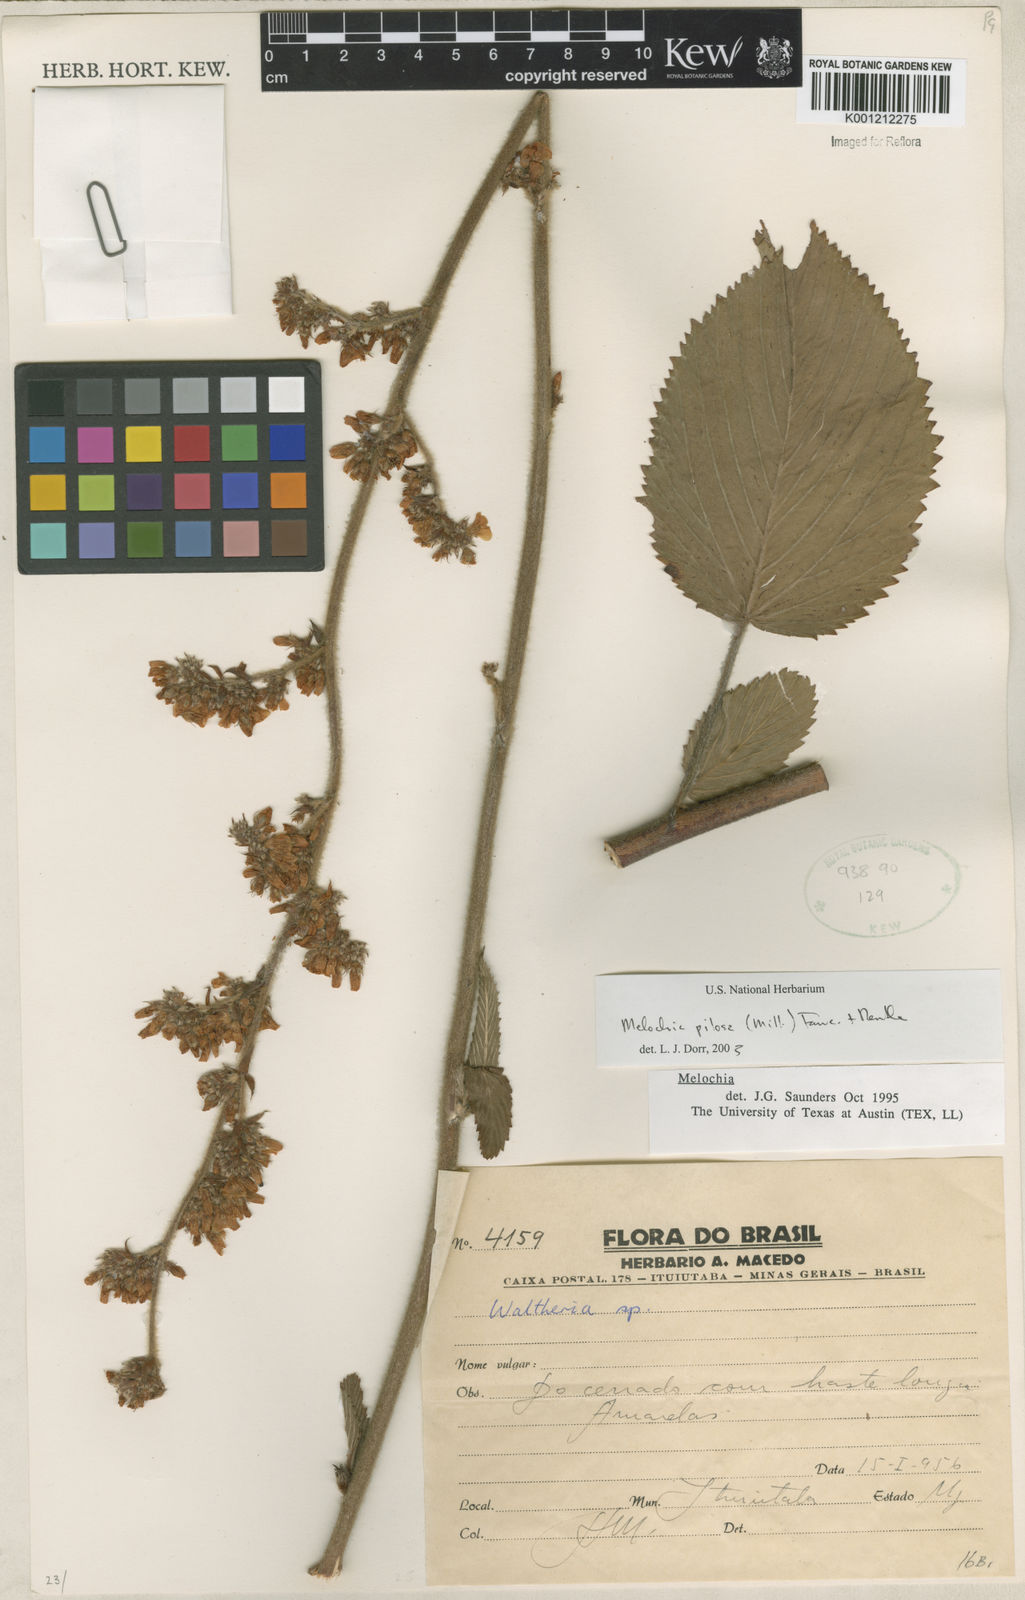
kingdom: Plantae
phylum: Tracheophyta
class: Magnoliopsida
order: Malvales
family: Malvaceae
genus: Melochia
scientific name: Melochia pilosa
